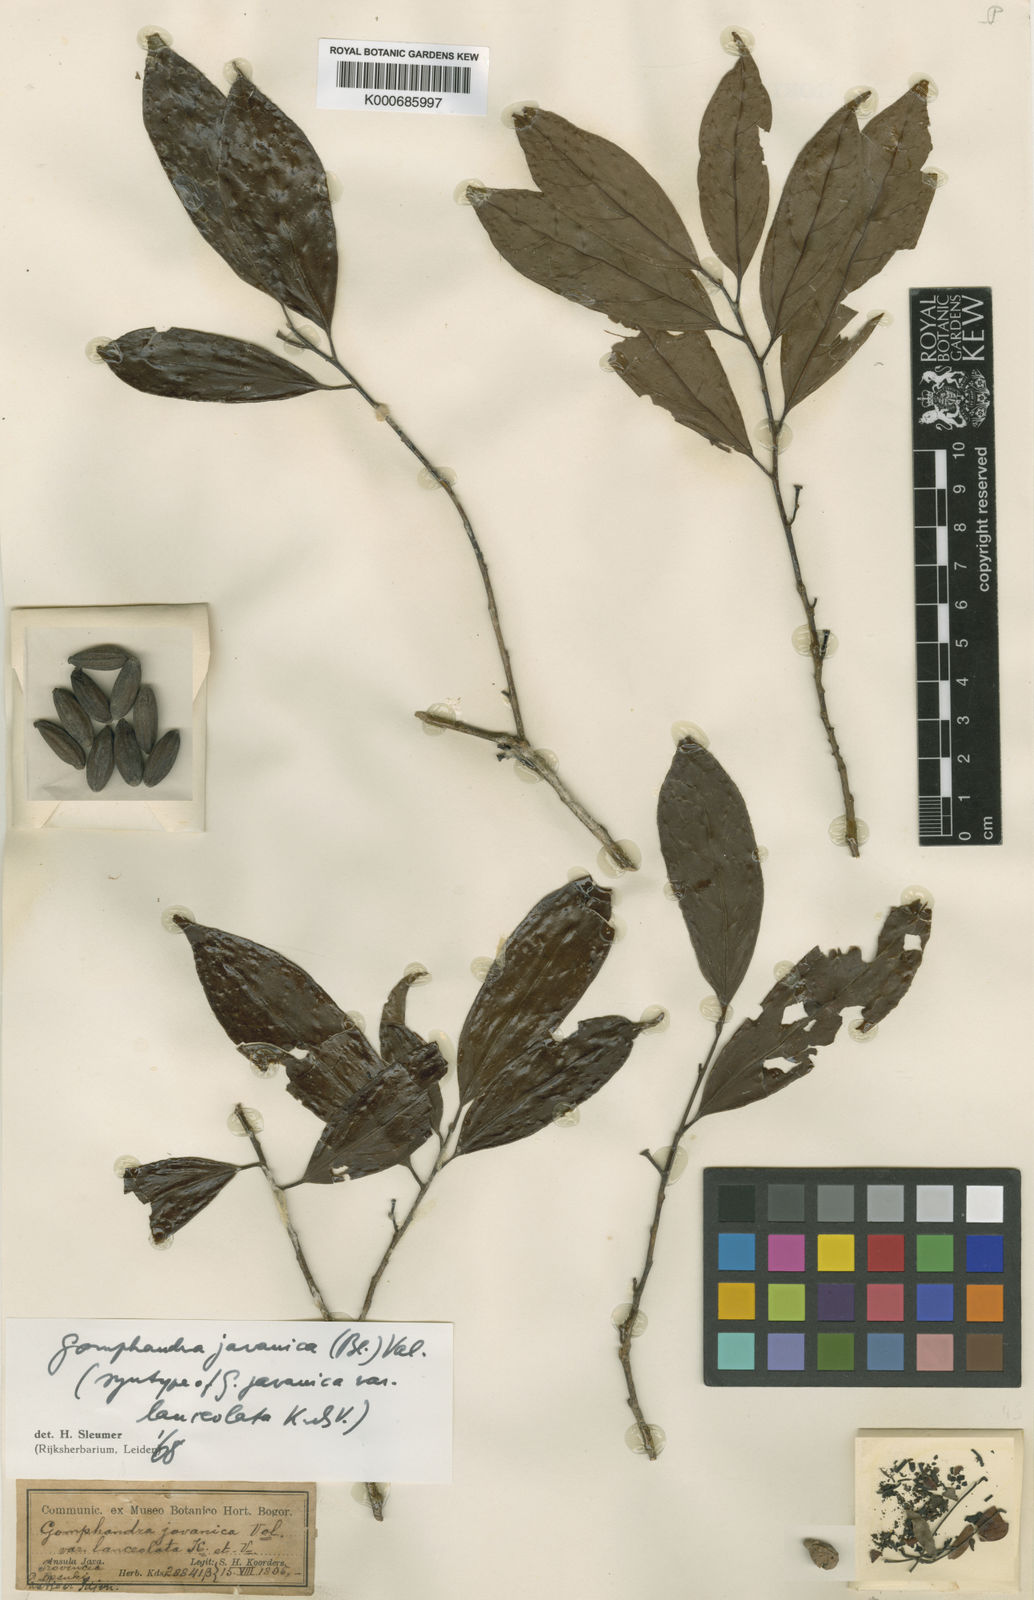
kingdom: Plantae
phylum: Tracheophyta
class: Magnoliopsida
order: Cardiopteridales
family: Stemonuraceae
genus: Gomphandra
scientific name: Gomphandra javanica
